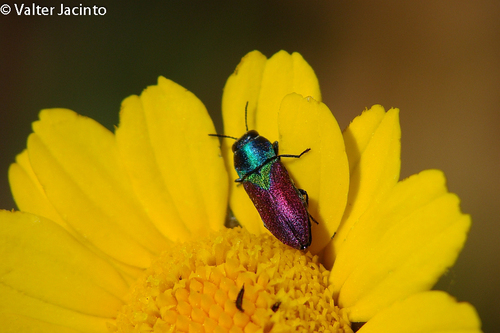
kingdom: Animalia
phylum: Arthropoda
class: Insecta
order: Coleoptera
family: Buprestidae
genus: Anthaxia
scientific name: Anthaxia salicis
